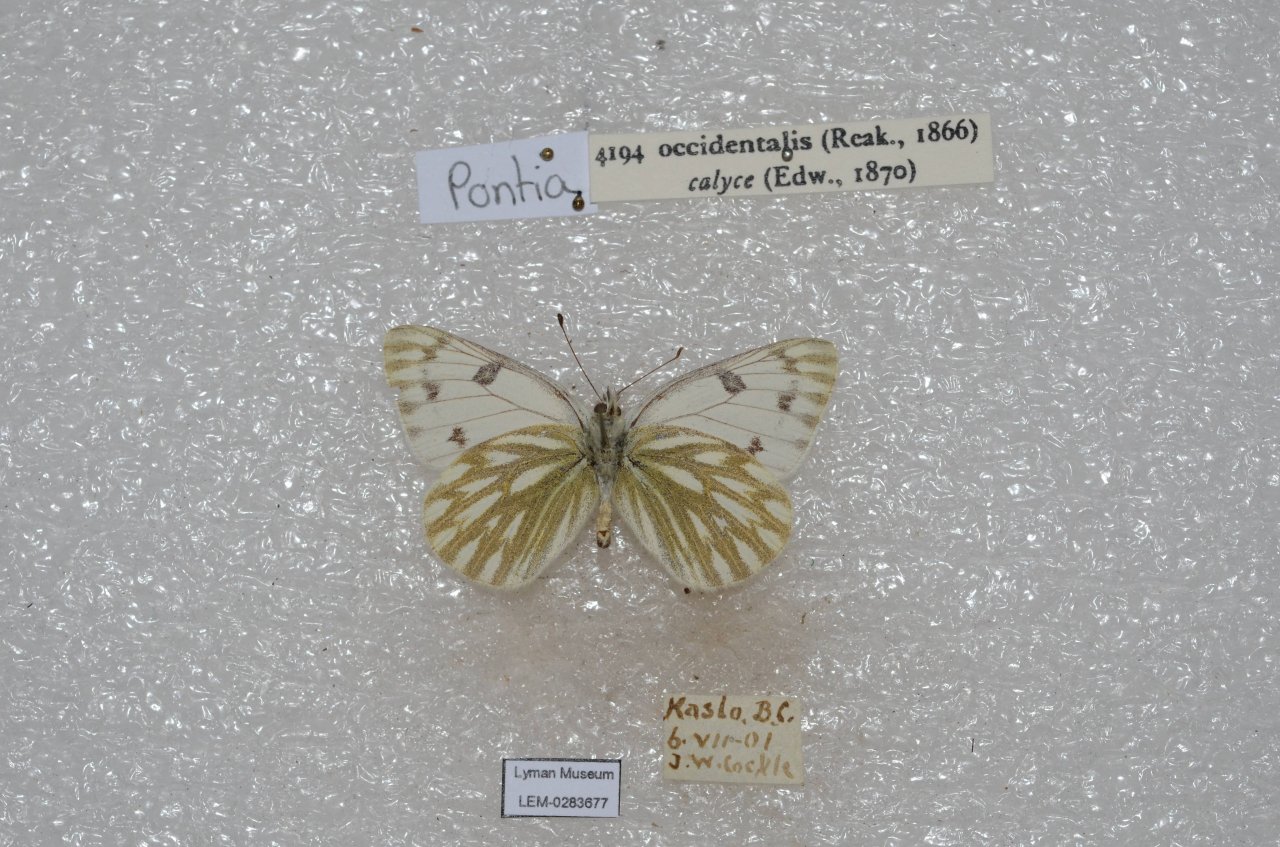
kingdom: Animalia
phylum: Arthropoda
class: Insecta
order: Lepidoptera
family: Pieridae
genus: Pontia
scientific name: Pontia occidentalis
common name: Western White
